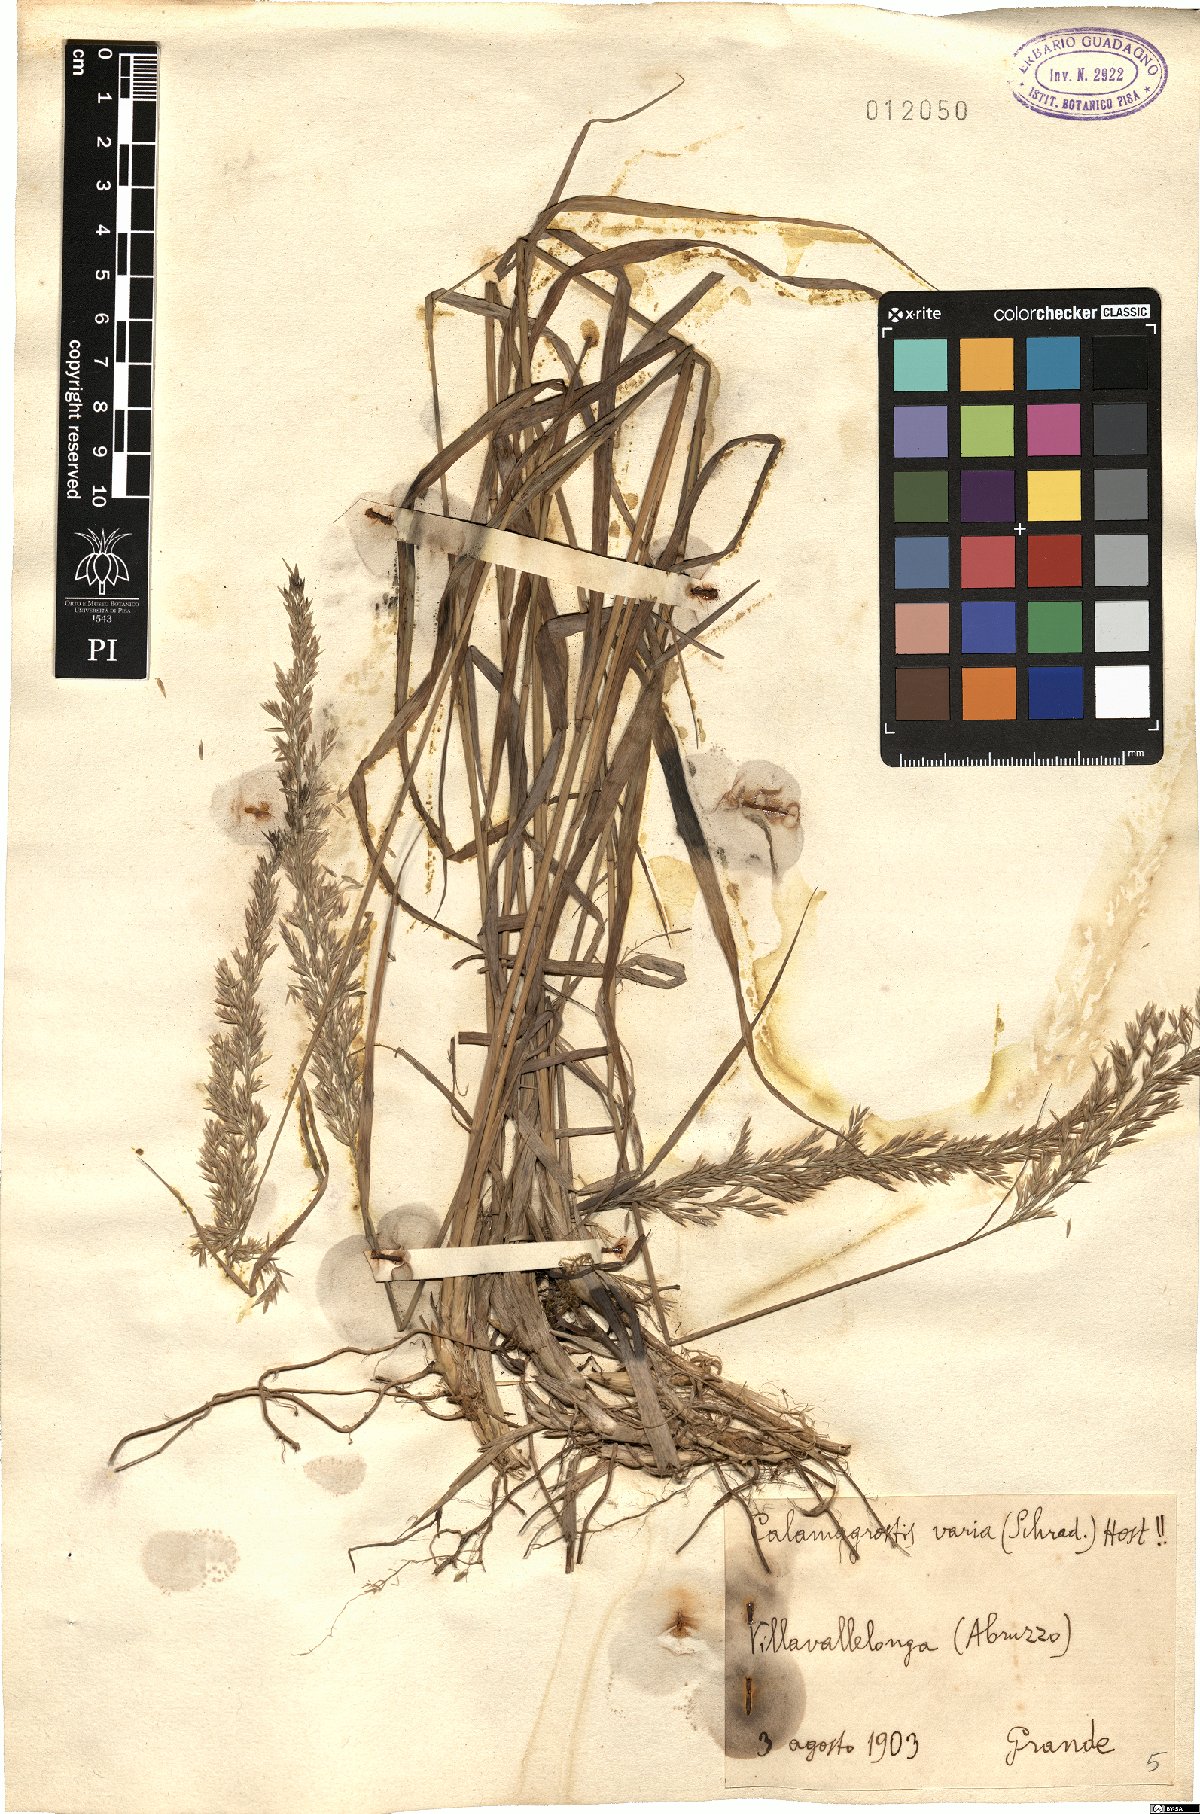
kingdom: Plantae
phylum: Tracheophyta
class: Liliopsida
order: Poales
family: Poaceae
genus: Calamagrostis
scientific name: Calamagrostis varia
